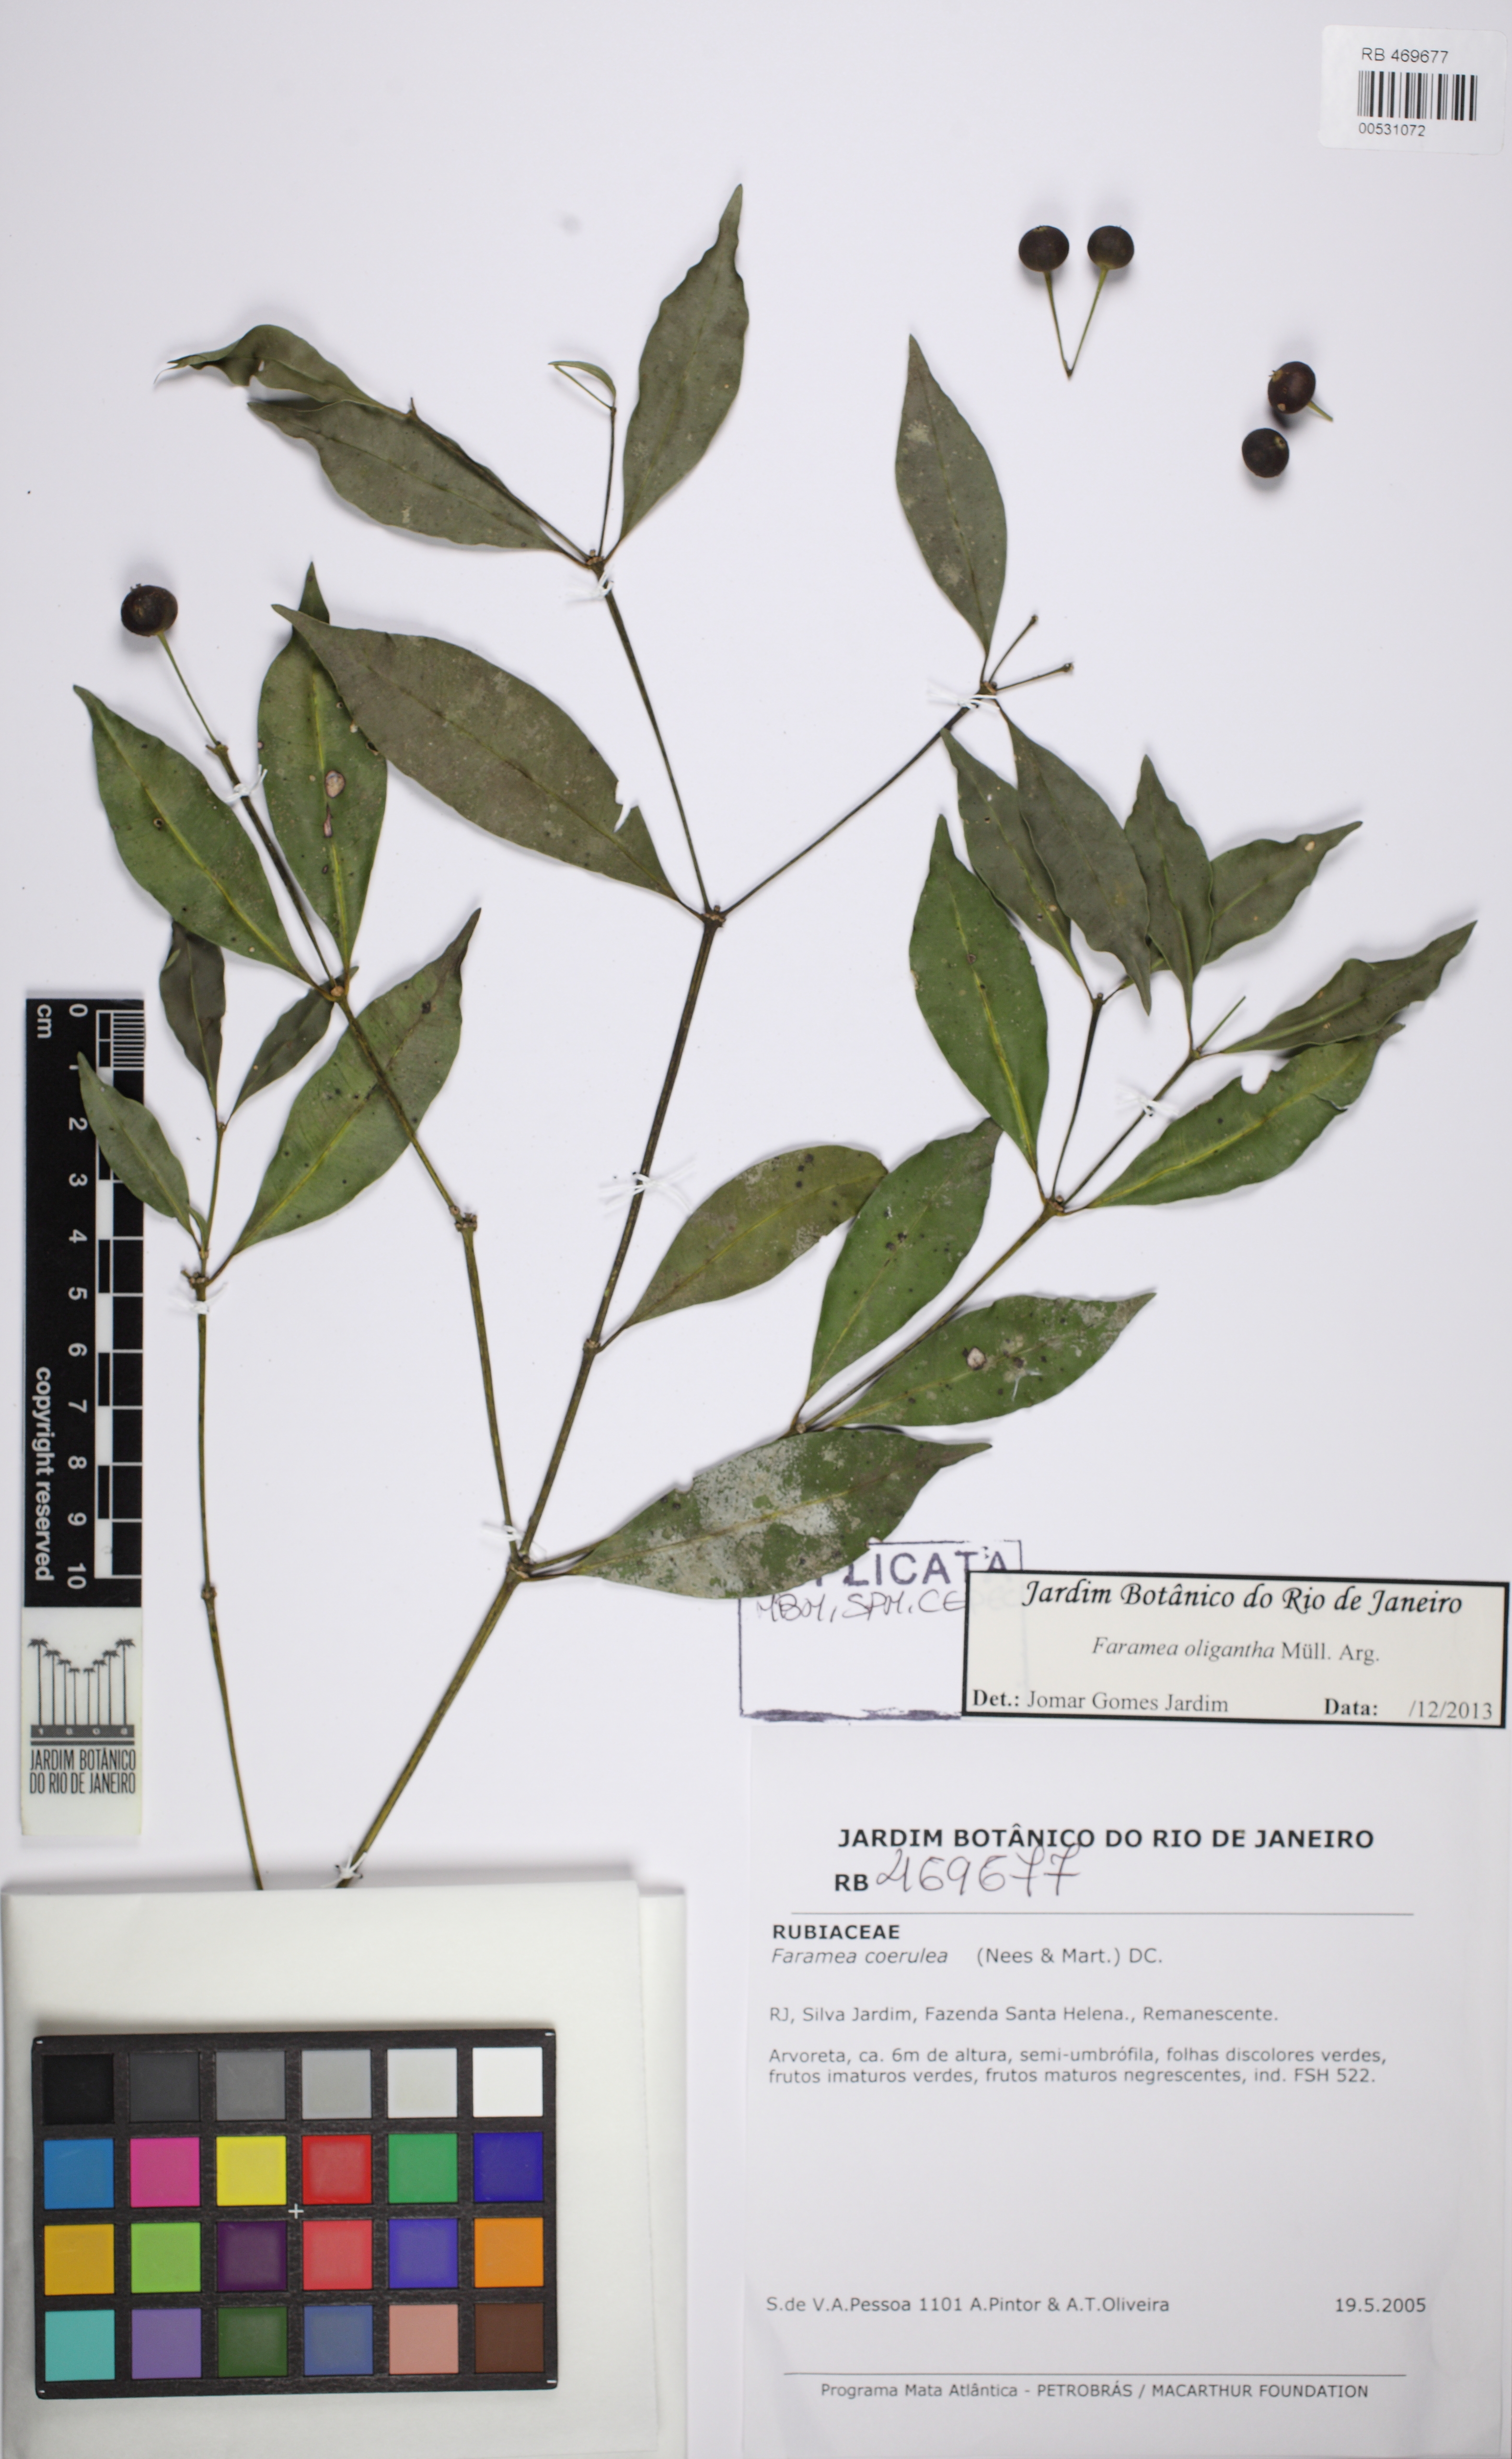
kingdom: Plantae
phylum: Tracheophyta
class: Magnoliopsida
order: Gentianales
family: Rubiaceae
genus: Faramea
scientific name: Faramea oligantha
